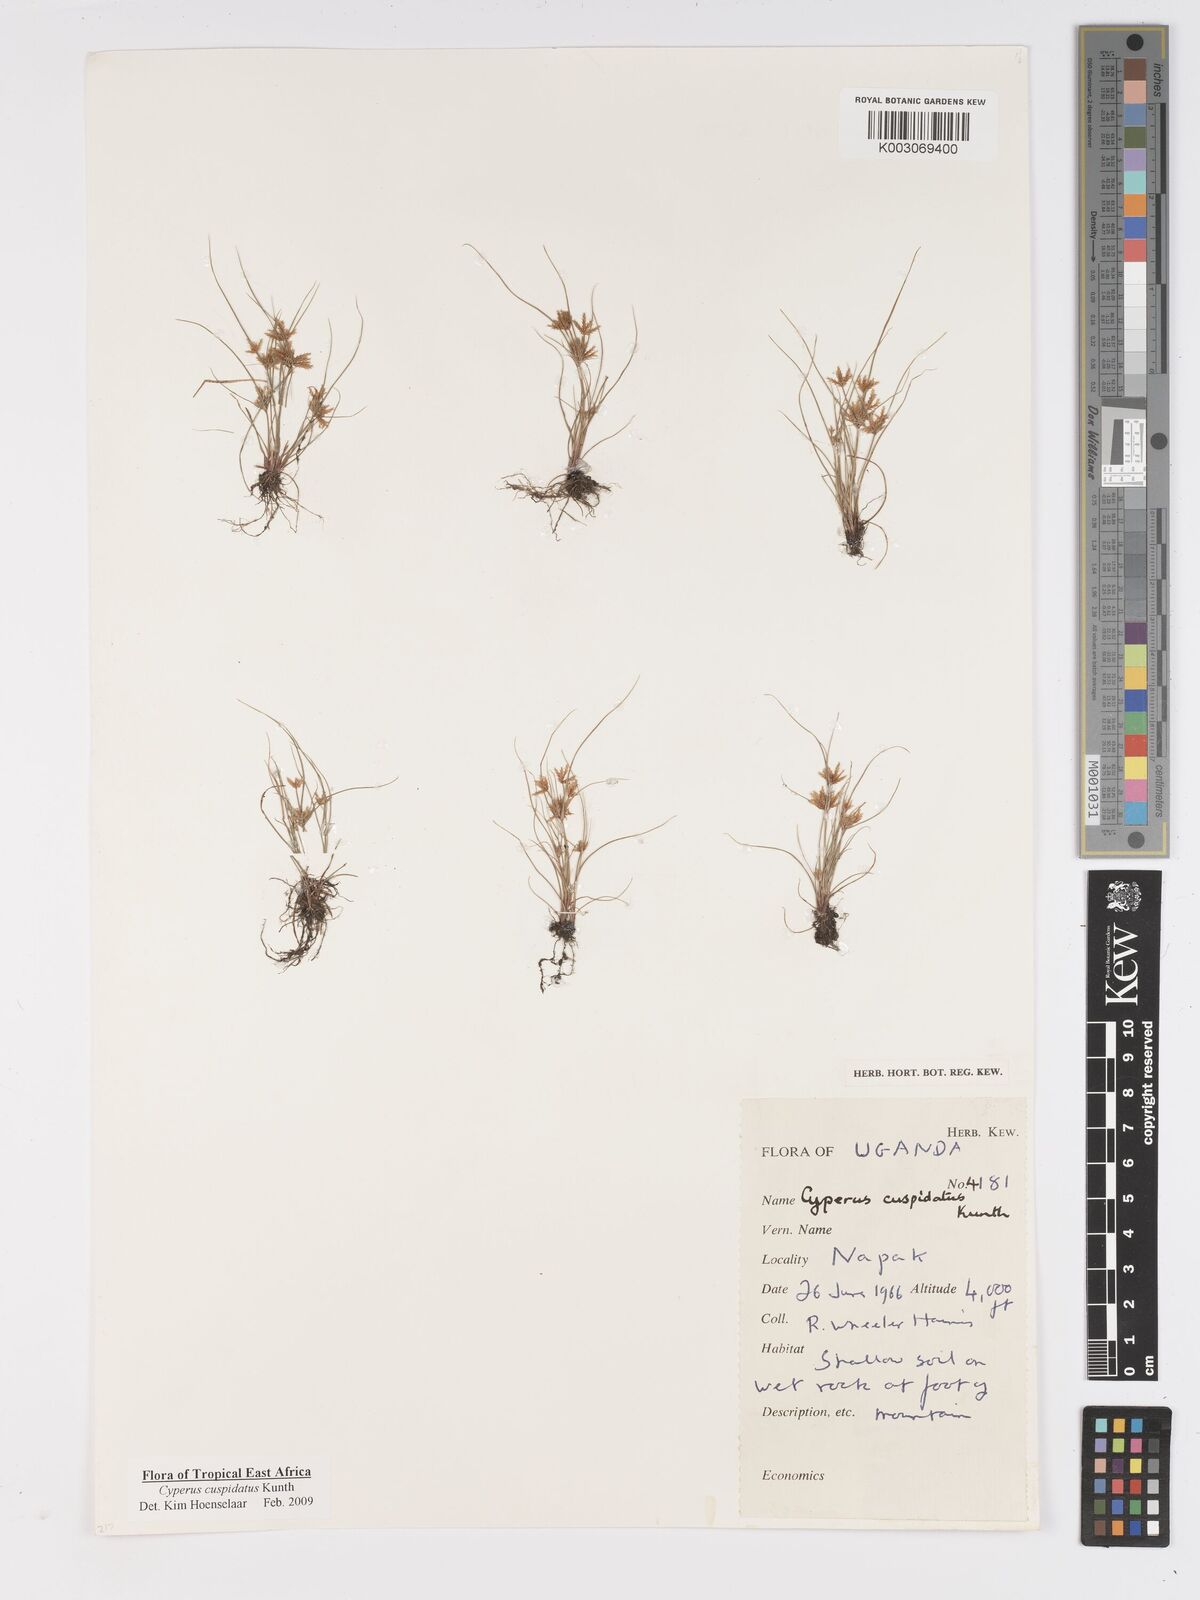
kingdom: Plantae
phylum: Tracheophyta
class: Liliopsida
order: Poales
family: Cyperaceae
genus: Cyperus
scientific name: Cyperus cuspidatus
